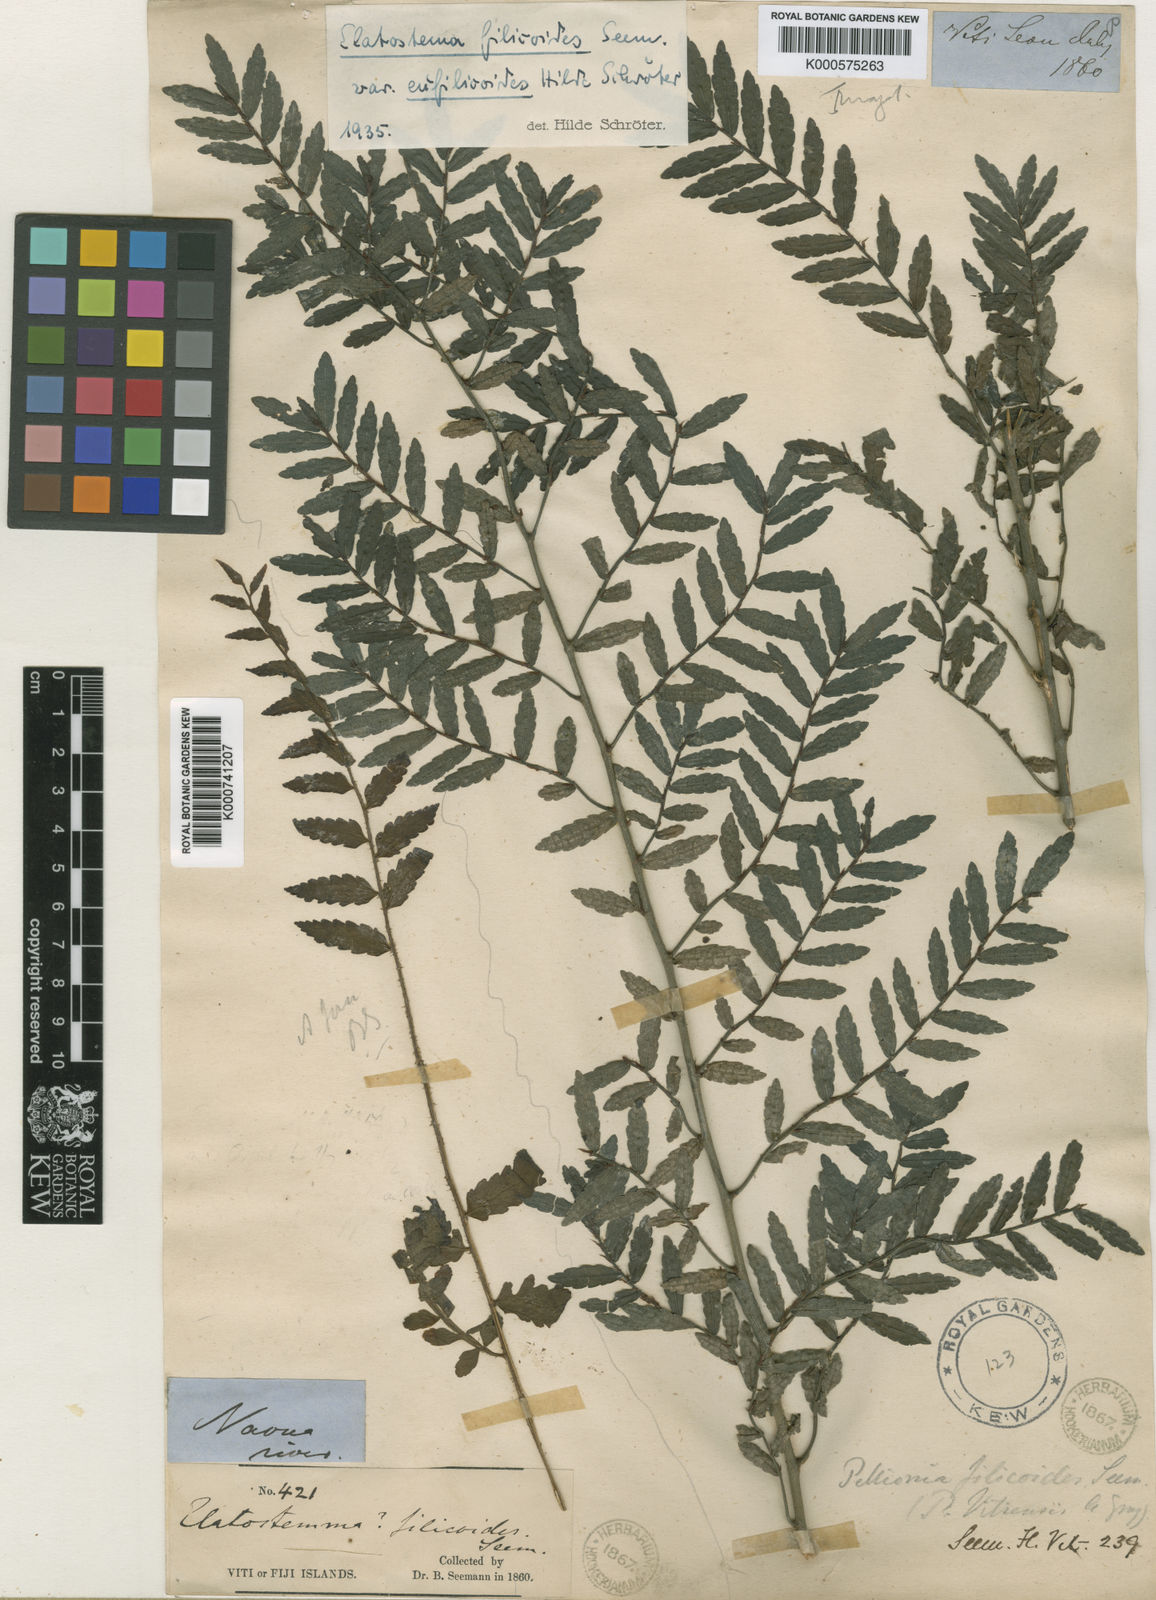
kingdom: Plantae
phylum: Tracheophyta
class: Magnoliopsida
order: Rosales
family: Urticaceae
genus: Elatostema
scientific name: Elatostema
